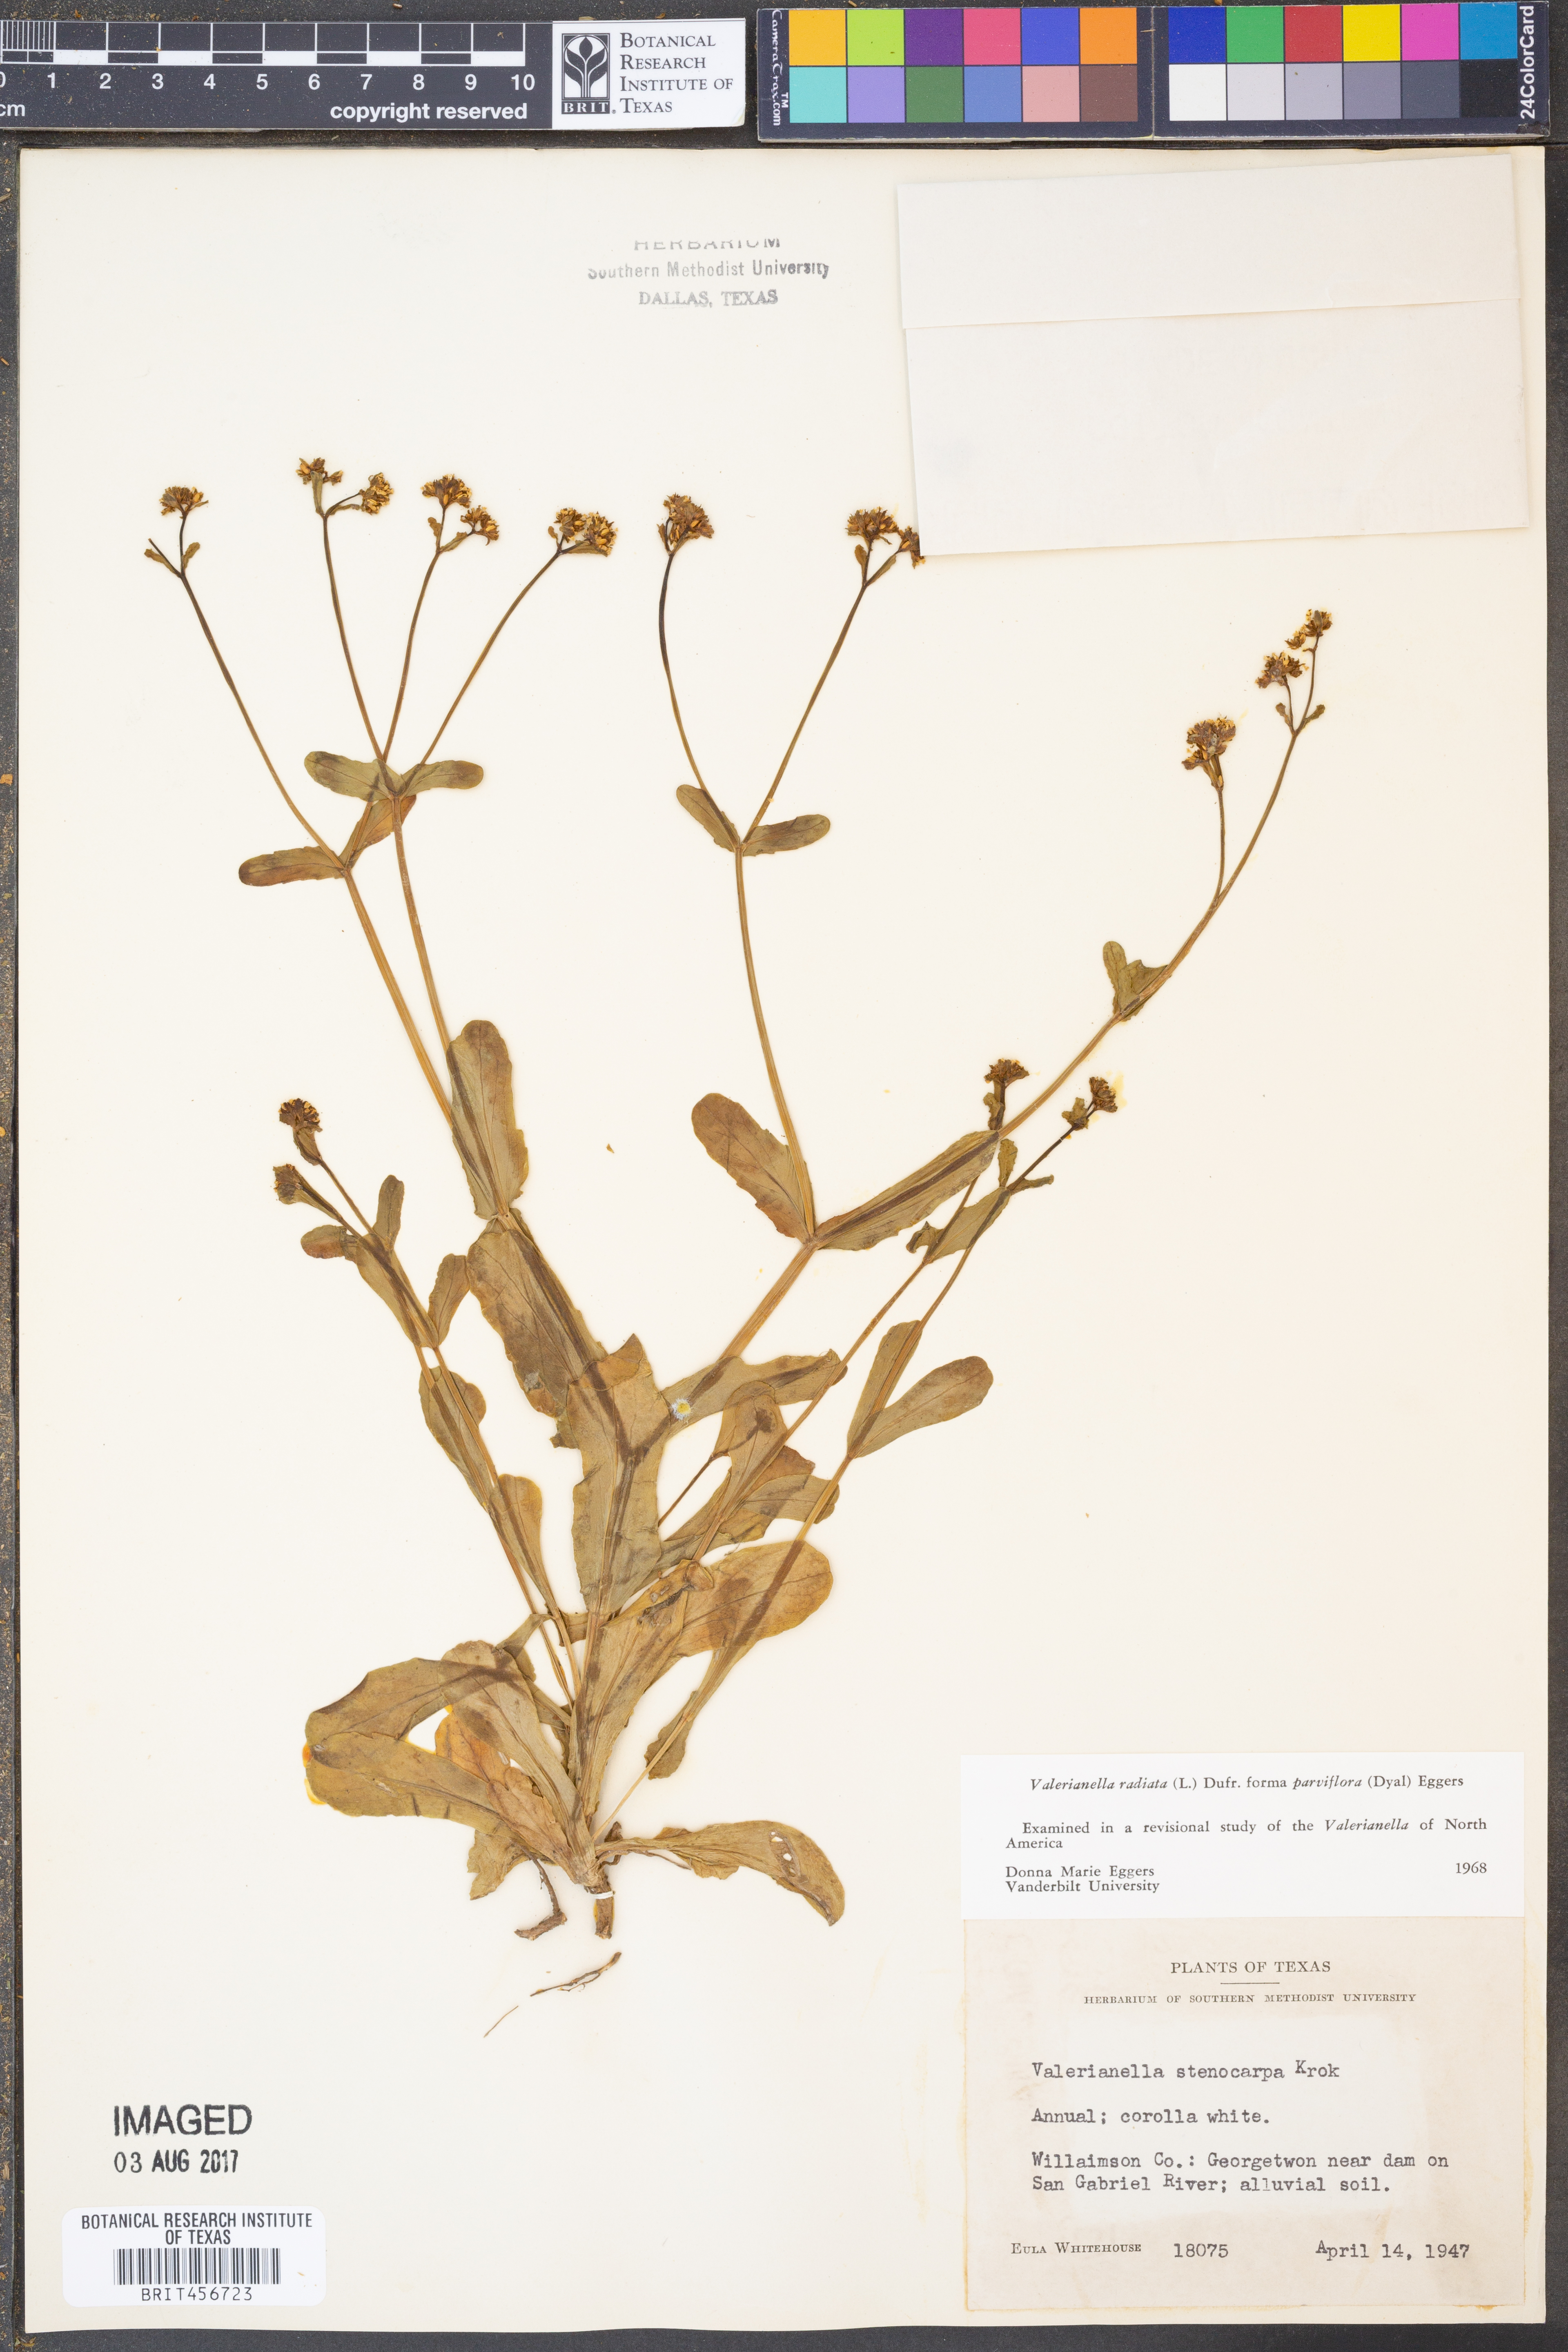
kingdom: Plantae
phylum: Tracheophyta
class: Magnoliopsida
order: Dipsacales
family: Caprifoliaceae
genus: Valerianella
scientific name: Valerianella radiata
